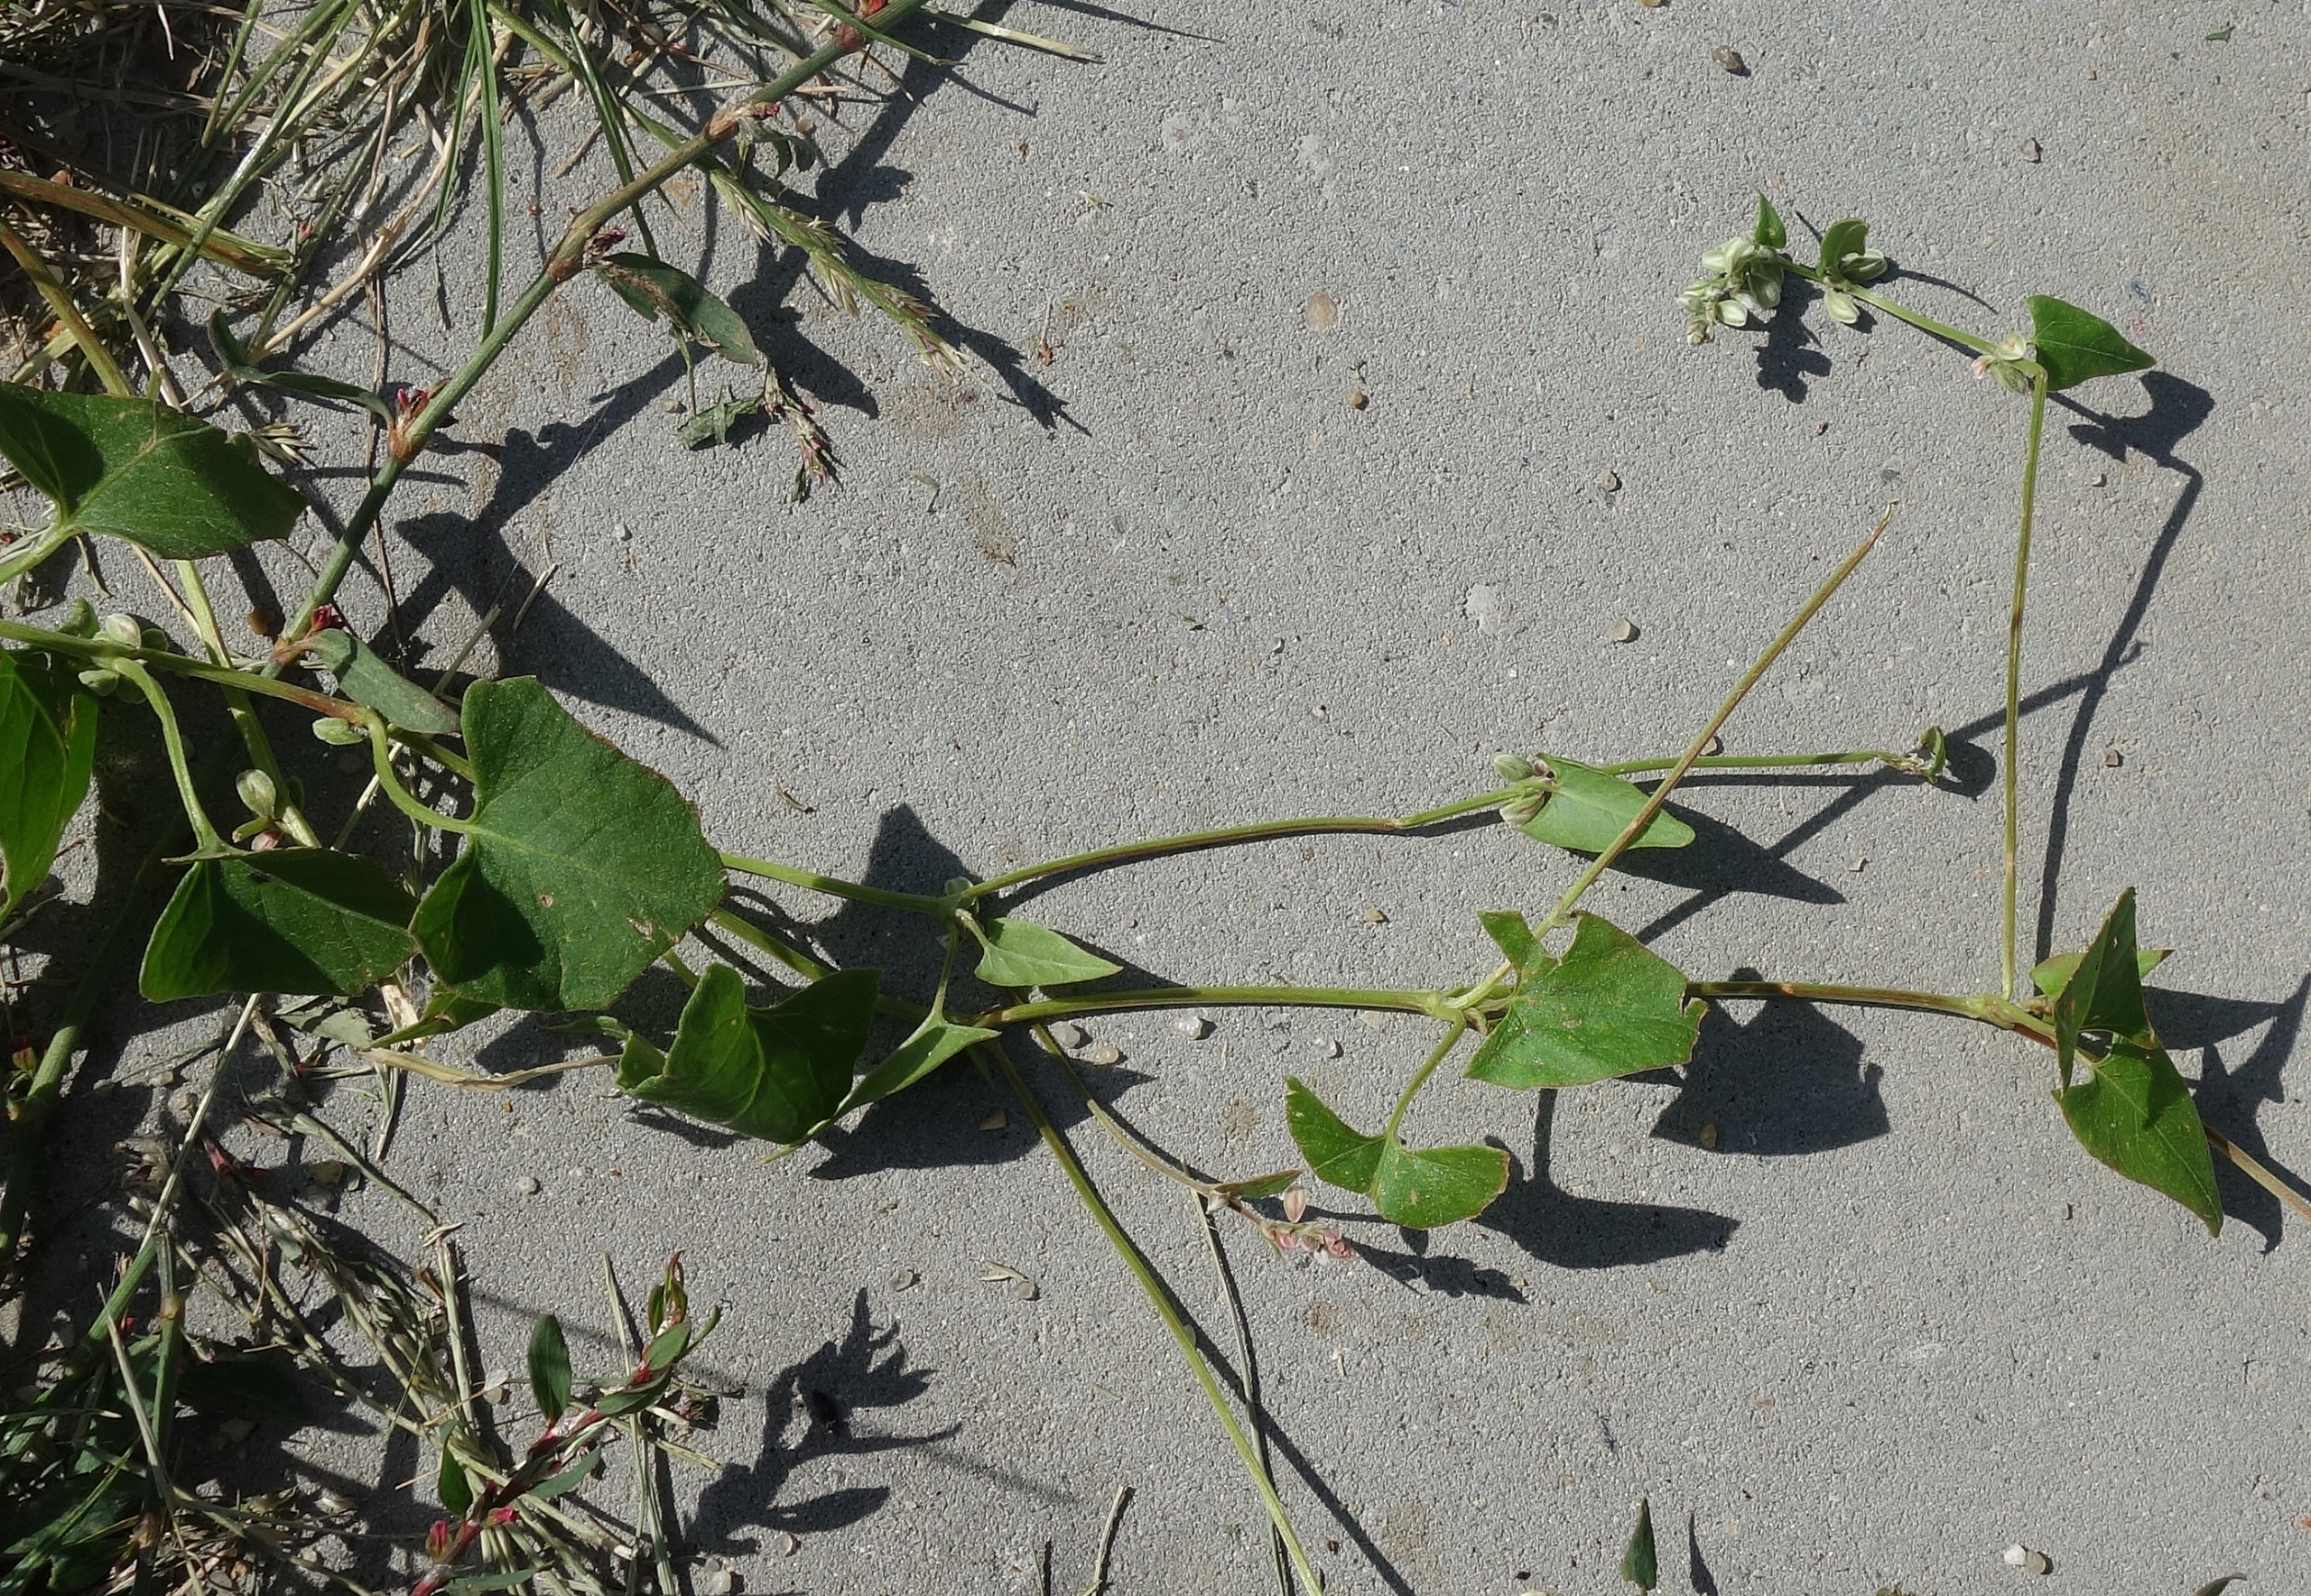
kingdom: Plantae
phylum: Tracheophyta
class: Magnoliopsida
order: Caryophyllales
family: Polygonaceae
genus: Fallopia
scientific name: Fallopia convolvulus
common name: Snerle-pileurt
